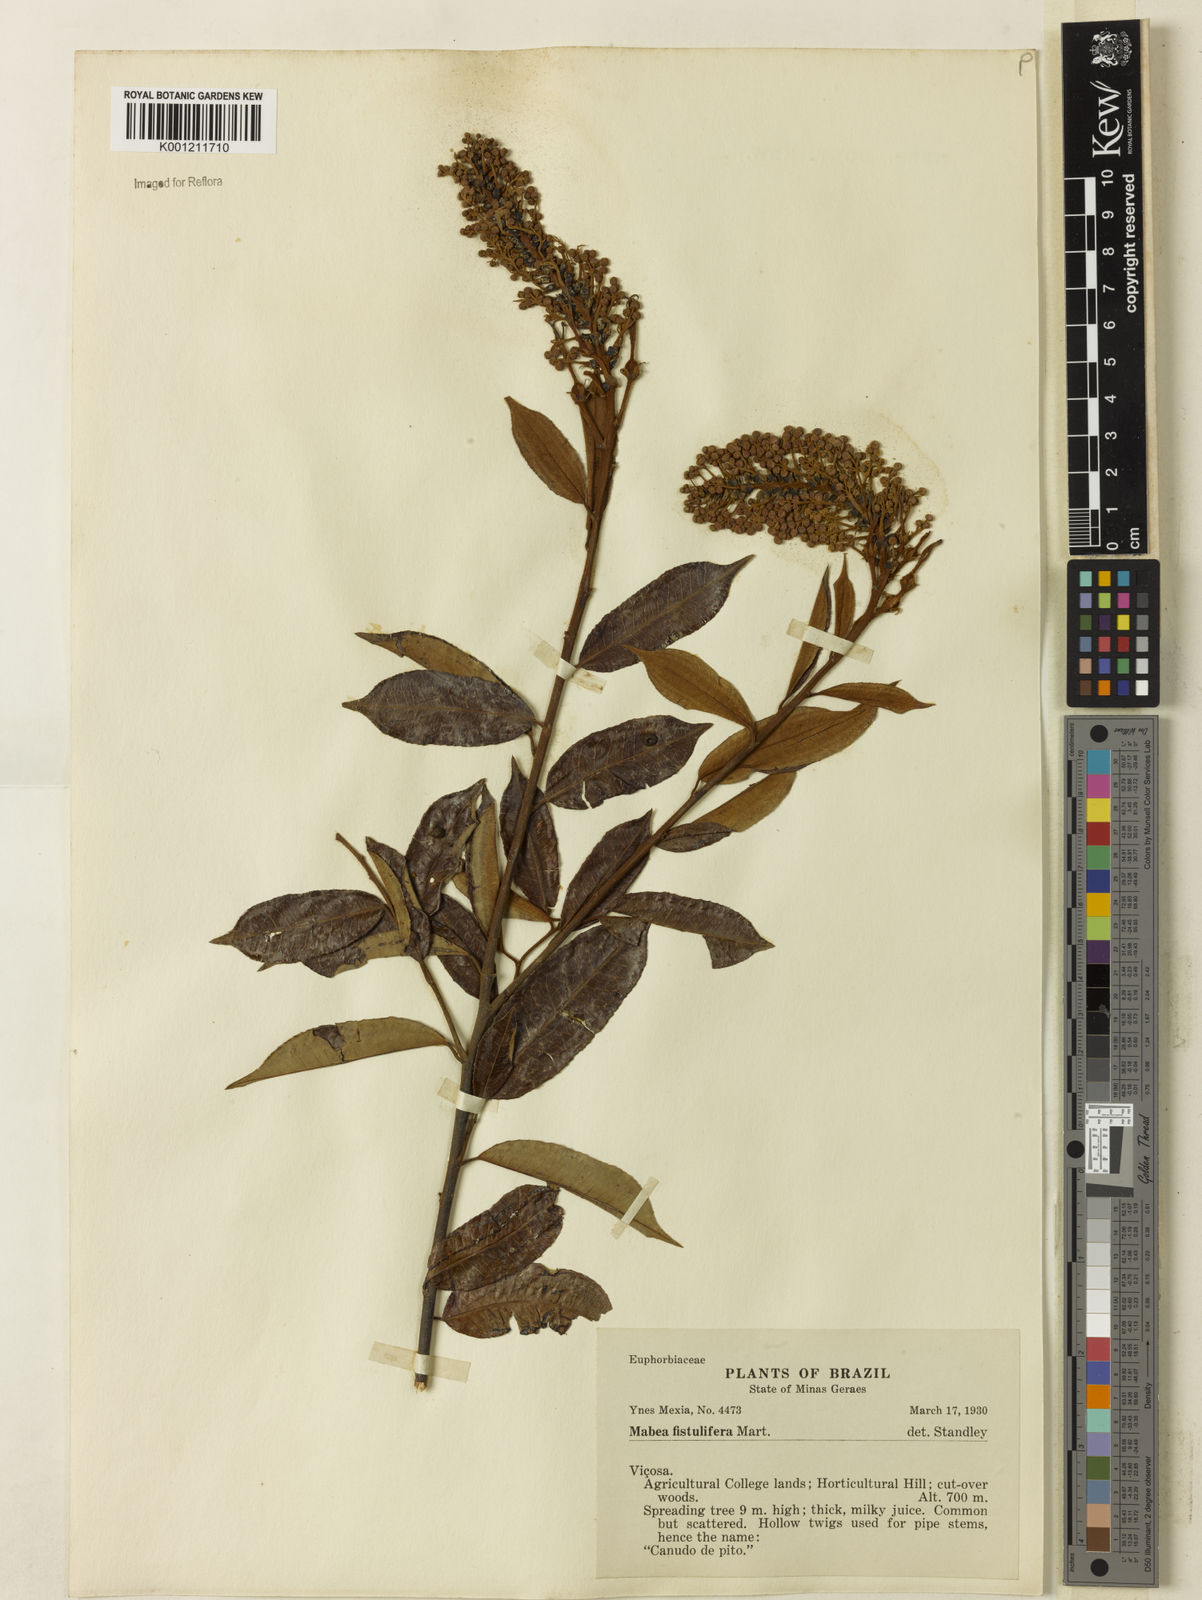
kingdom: Plantae
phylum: Tracheophyta
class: Magnoliopsida
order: Malpighiales
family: Euphorbiaceae
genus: Mabea
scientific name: Mabea fistulifera
